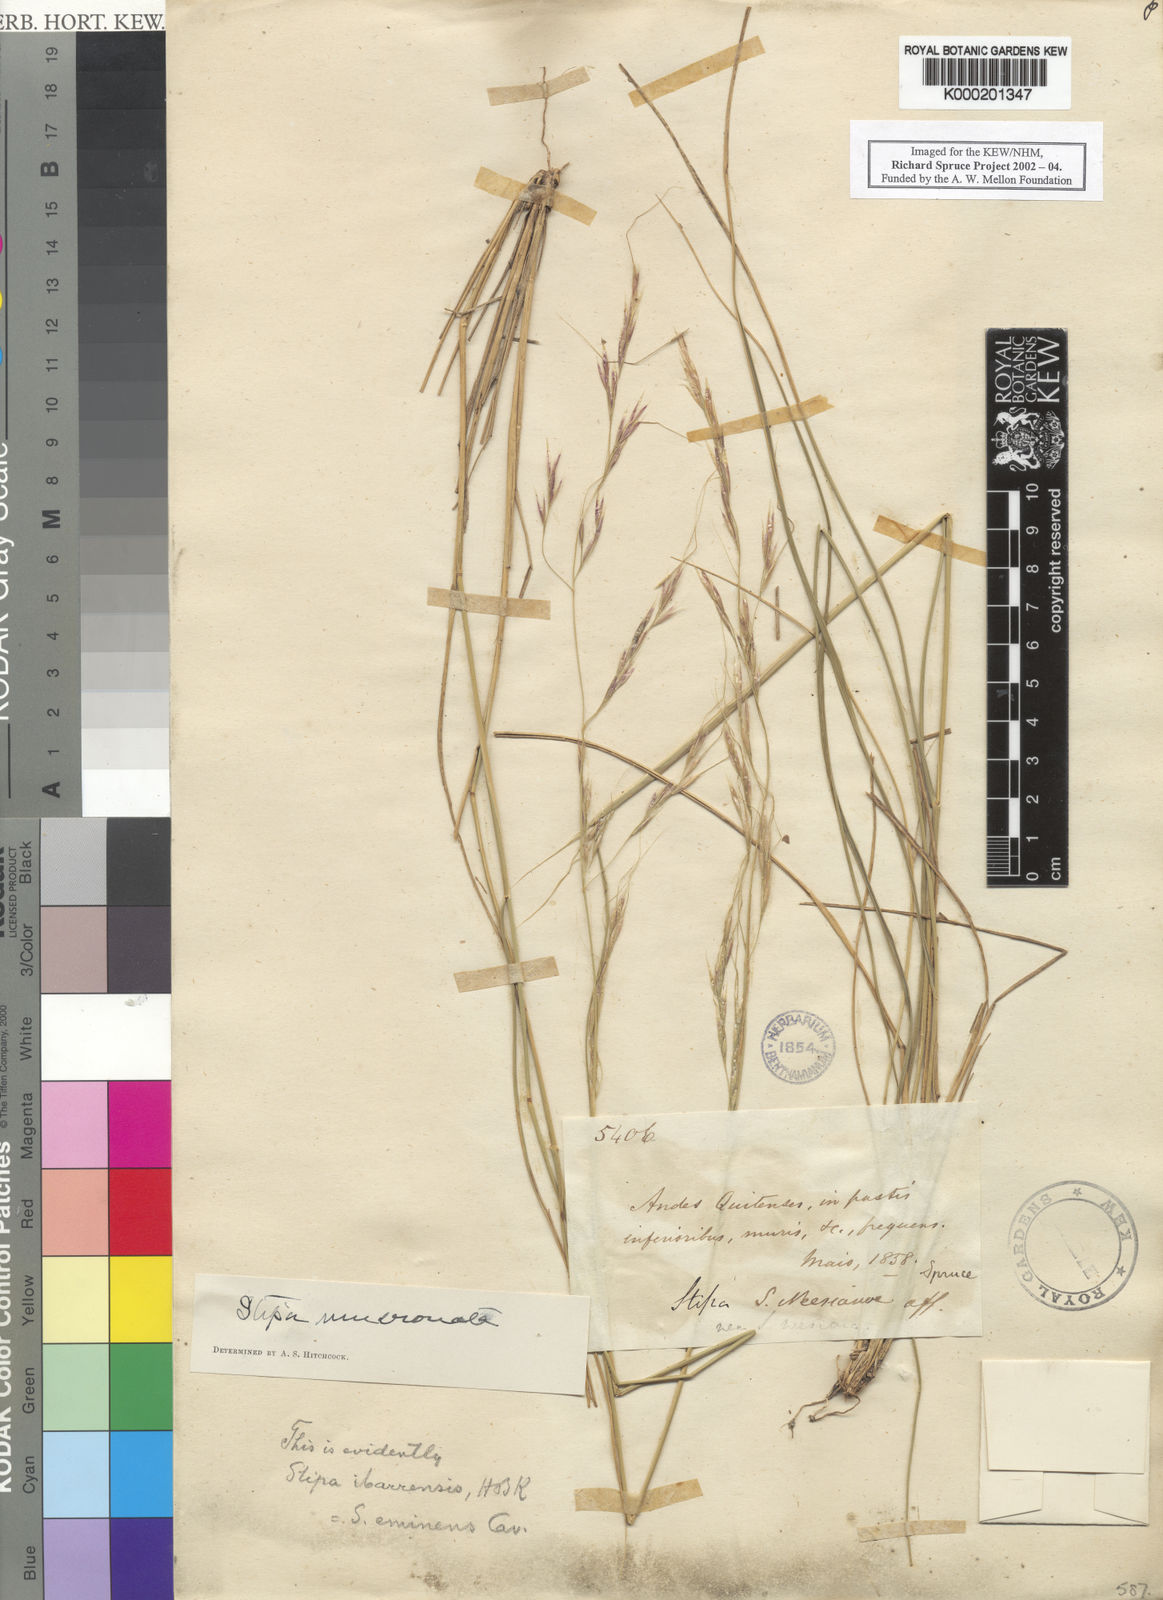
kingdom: Plantae
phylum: Tracheophyta
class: Liliopsida
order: Poales
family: Poaceae
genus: Nassella
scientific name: Nassella mucronata
